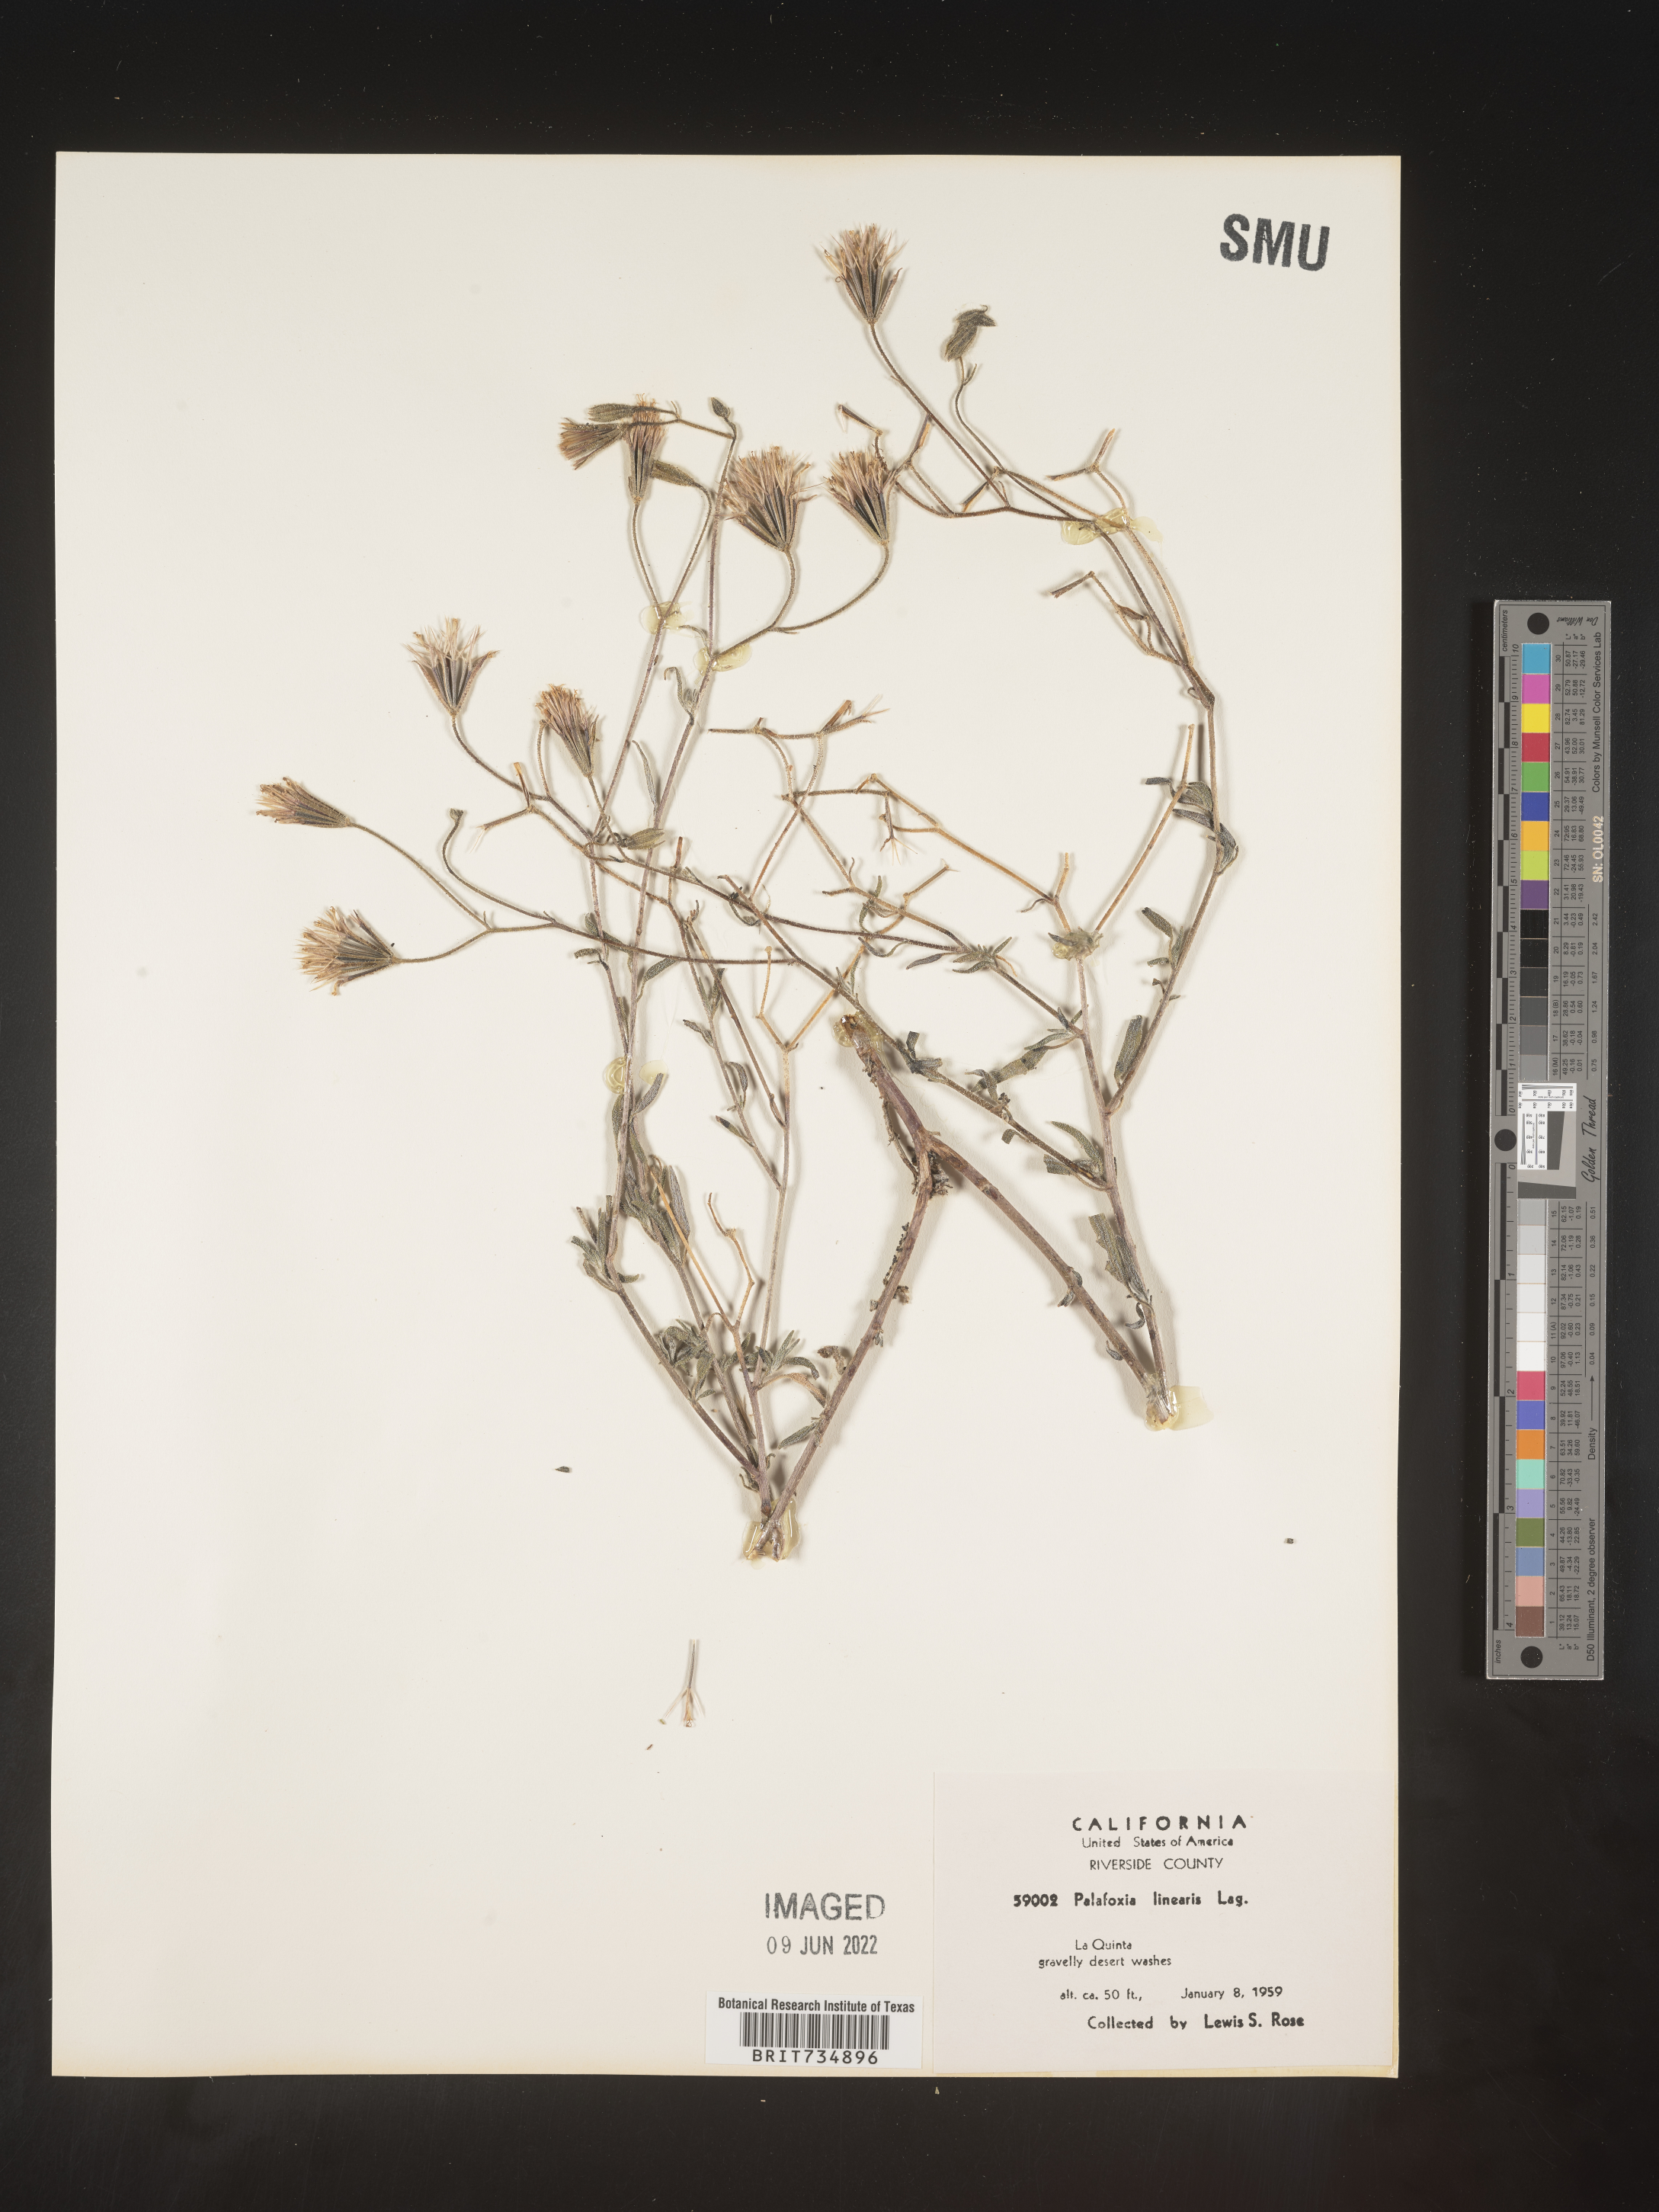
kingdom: Plantae
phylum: Tracheophyta
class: Magnoliopsida
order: Asterales
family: Asteraceae
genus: Palafoxia
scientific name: Palafoxia linearis
